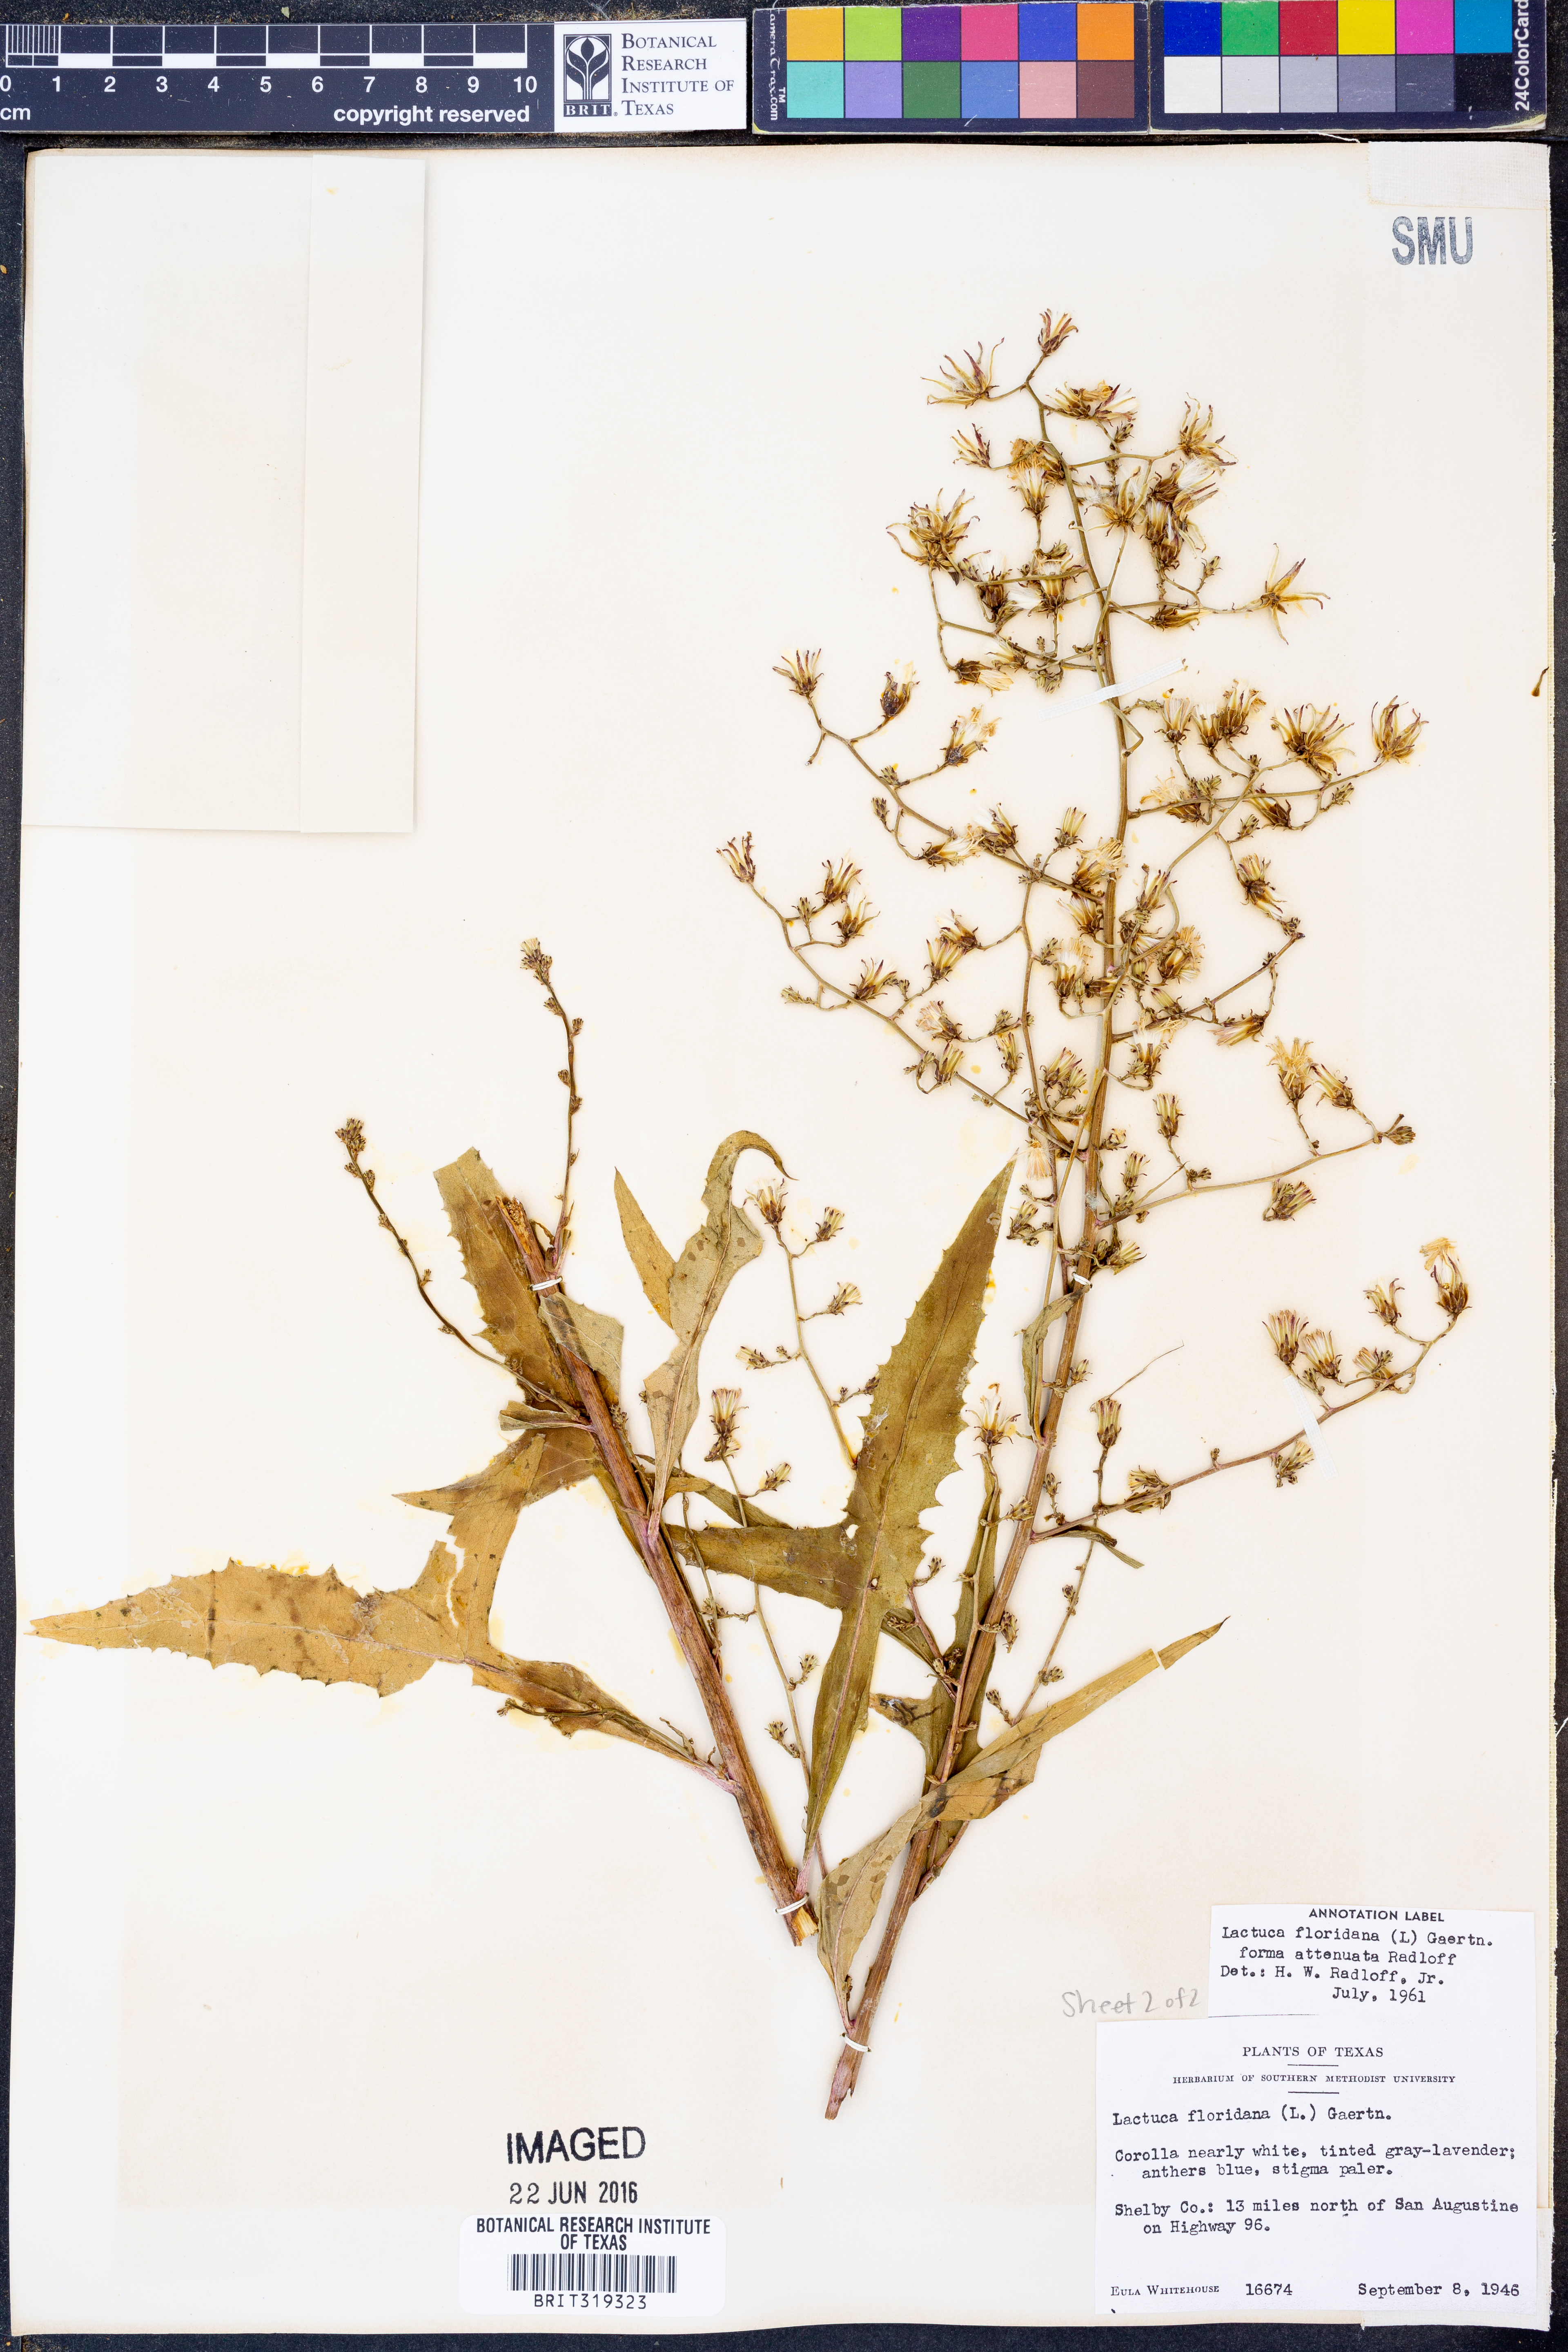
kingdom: Plantae
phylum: Tracheophyta
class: Magnoliopsida
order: Asterales
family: Asteraceae
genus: Lactuca
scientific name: Lactuca floridana
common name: Woodland lettuce
